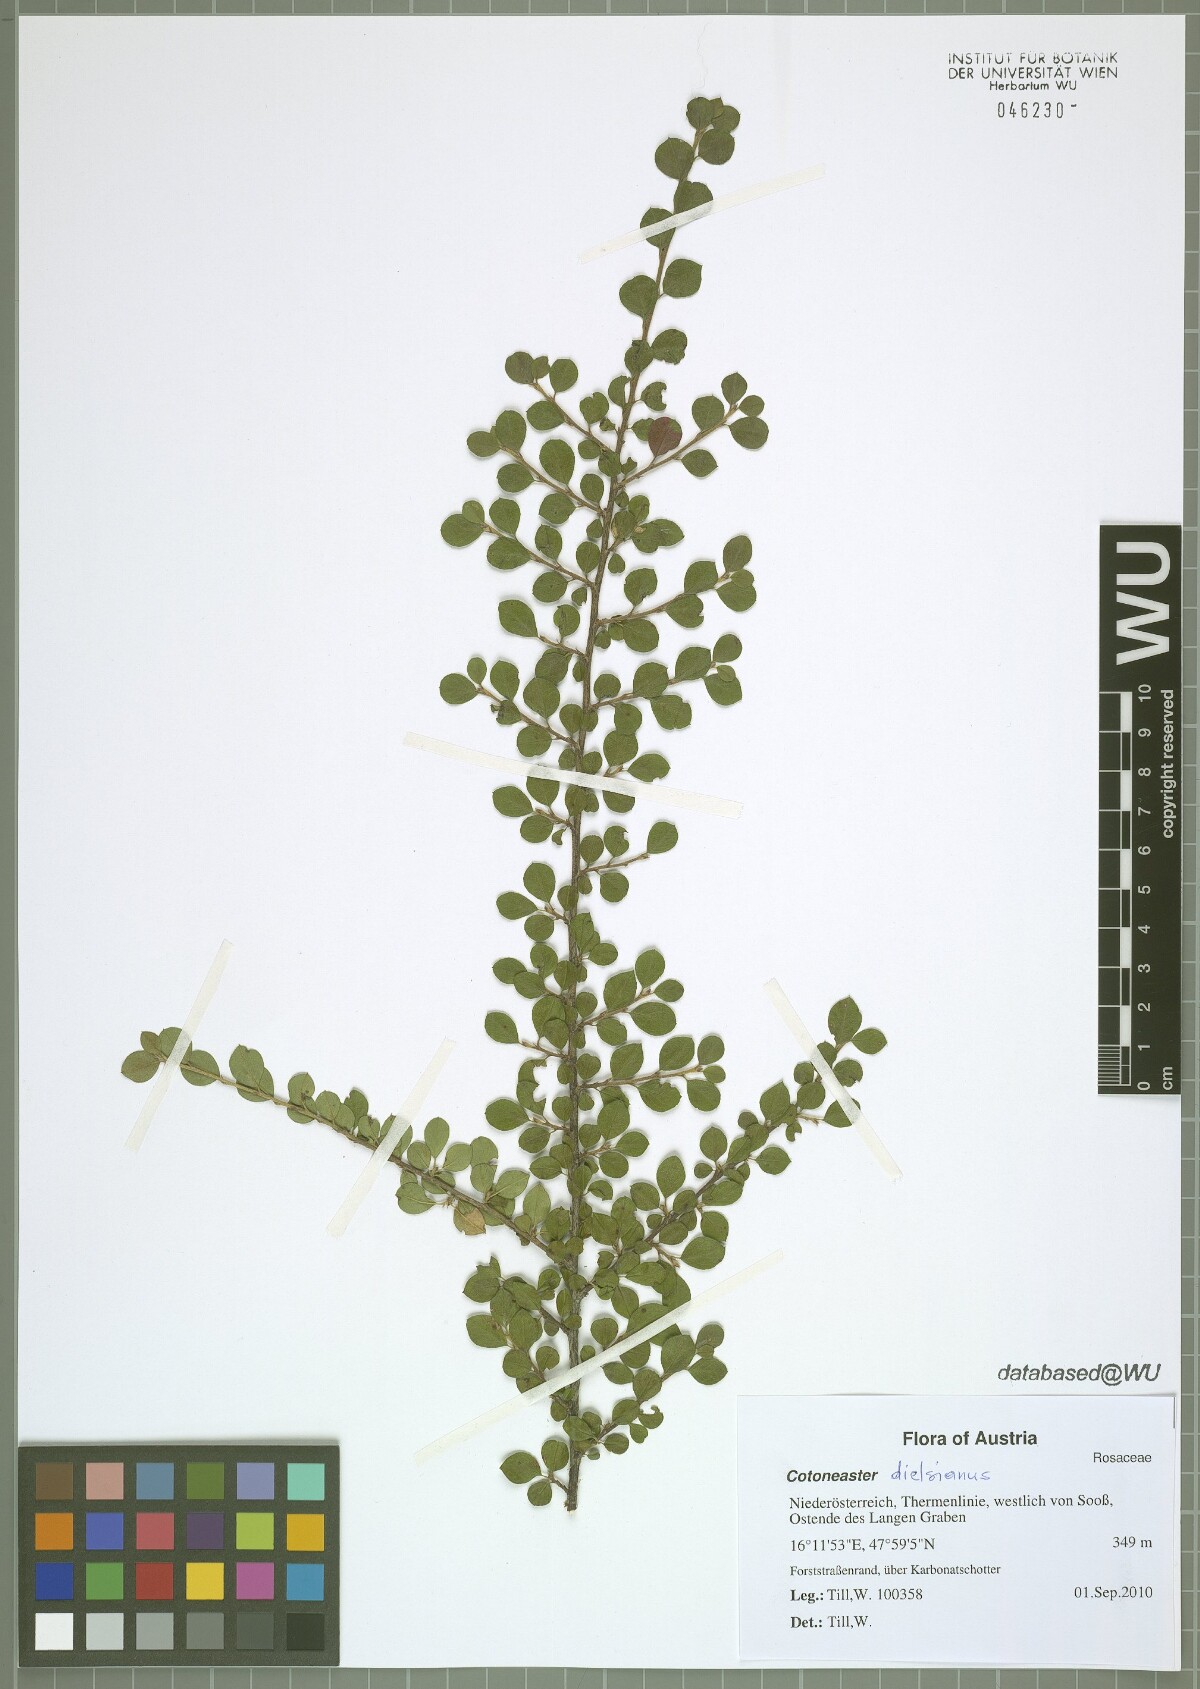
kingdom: Plantae
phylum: Tracheophyta
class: Magnoliopsida
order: Rosales
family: Rosaceae
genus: Cotoneaster
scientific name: Cotoneaster horizontalis
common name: Wall cotoneaster
